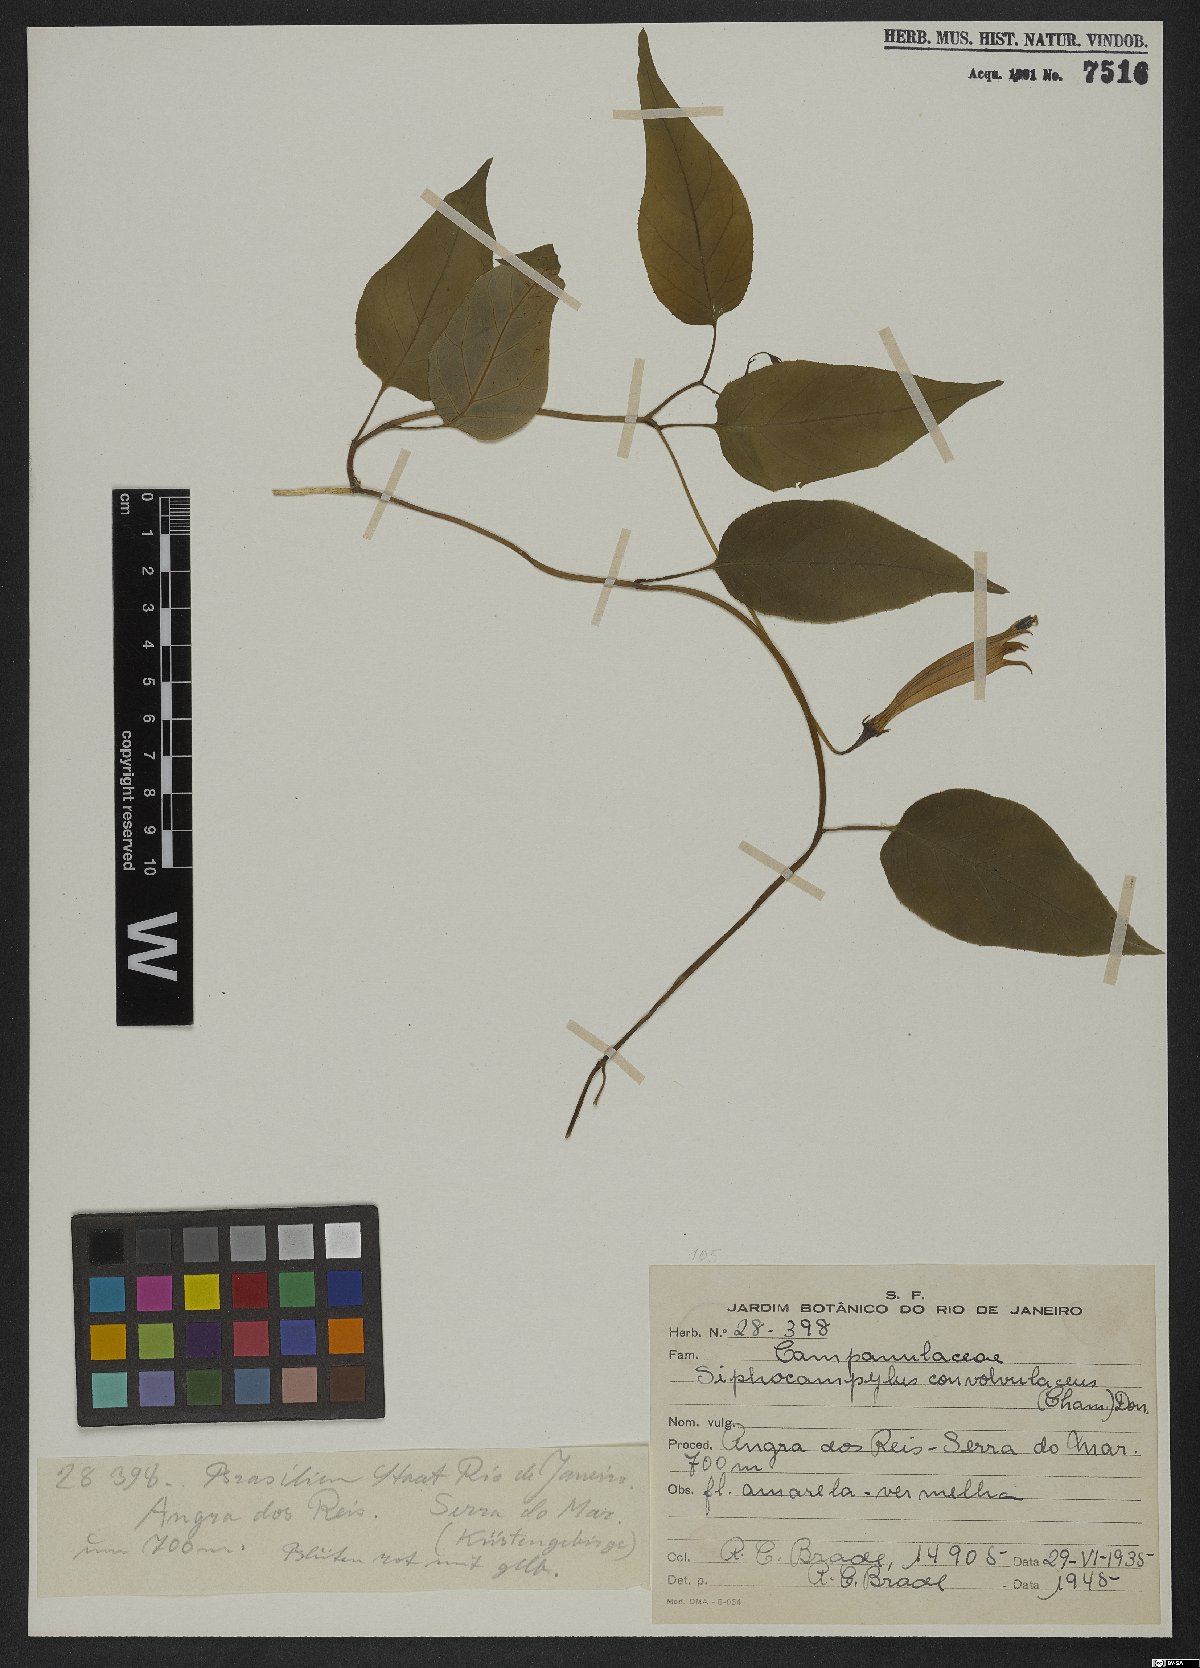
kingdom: Plantae
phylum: Tracheophyta
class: Magnoliopsida
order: Asterales
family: Campanulaceae
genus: Siphocampylus
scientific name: Siphocampylus convolvulaceus
